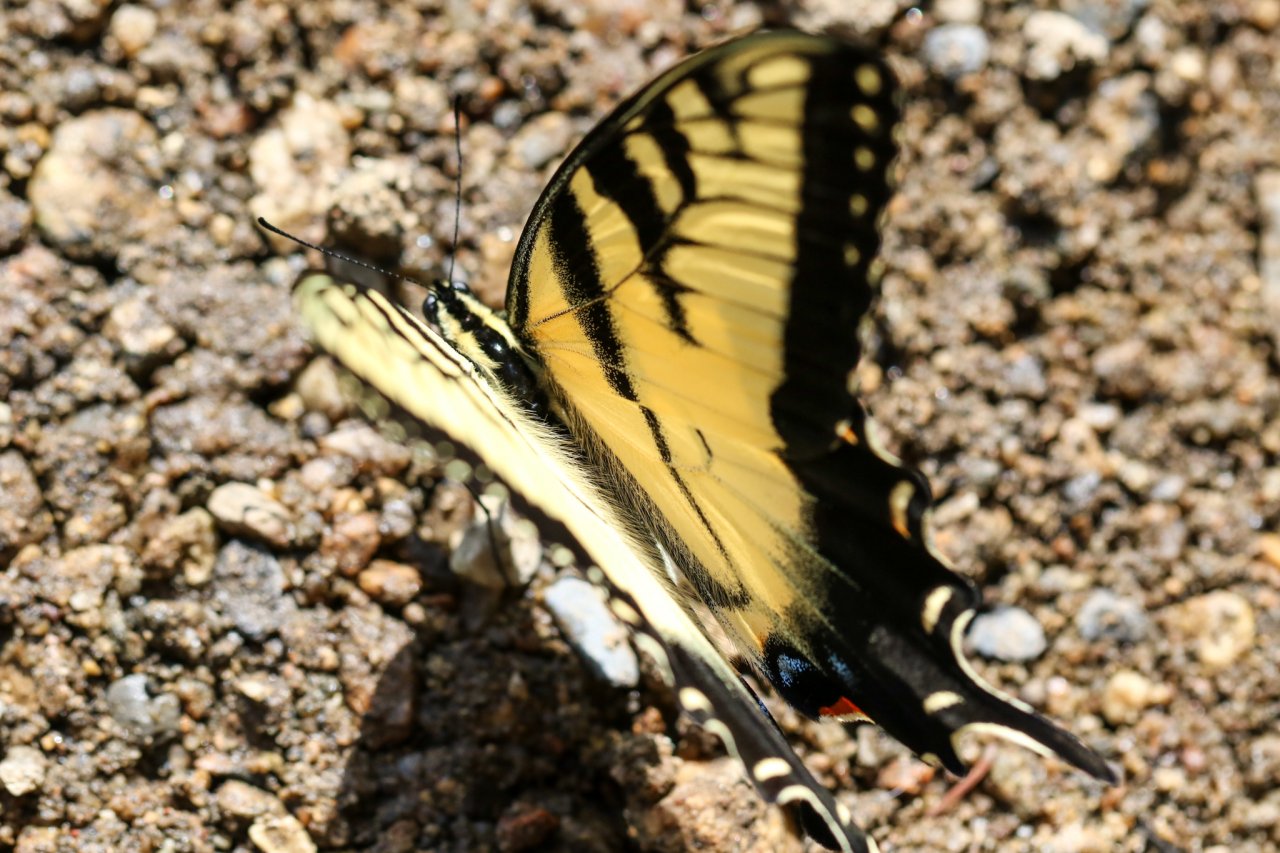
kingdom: Animalia
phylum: Arthropoda
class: Insecta
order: Lepidoptera
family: Papilionidae
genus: Pterourus
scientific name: Pterourus glaucus
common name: Eastern Tiger Swallowtail
